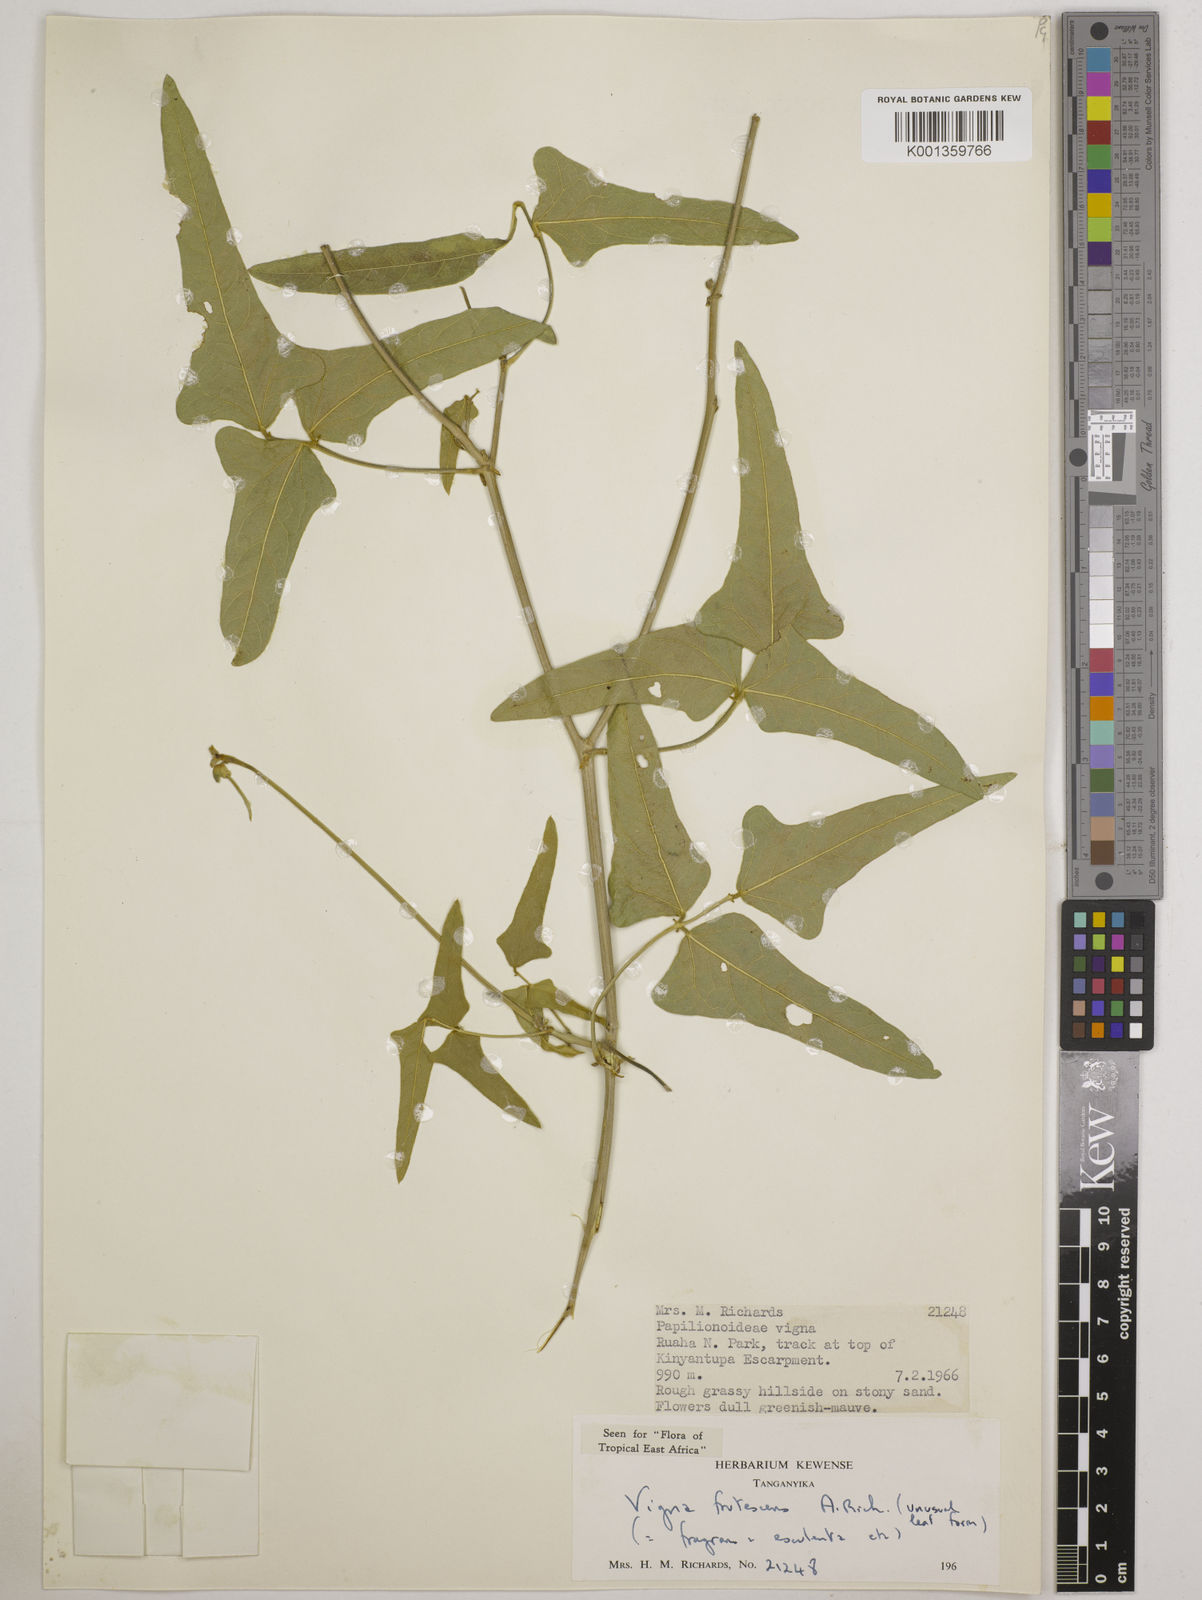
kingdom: Plantae
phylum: Tracheophyta
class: Magnoliopsida
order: Fabales
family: Fabaceae
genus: Vigna
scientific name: Vigna frutescens
